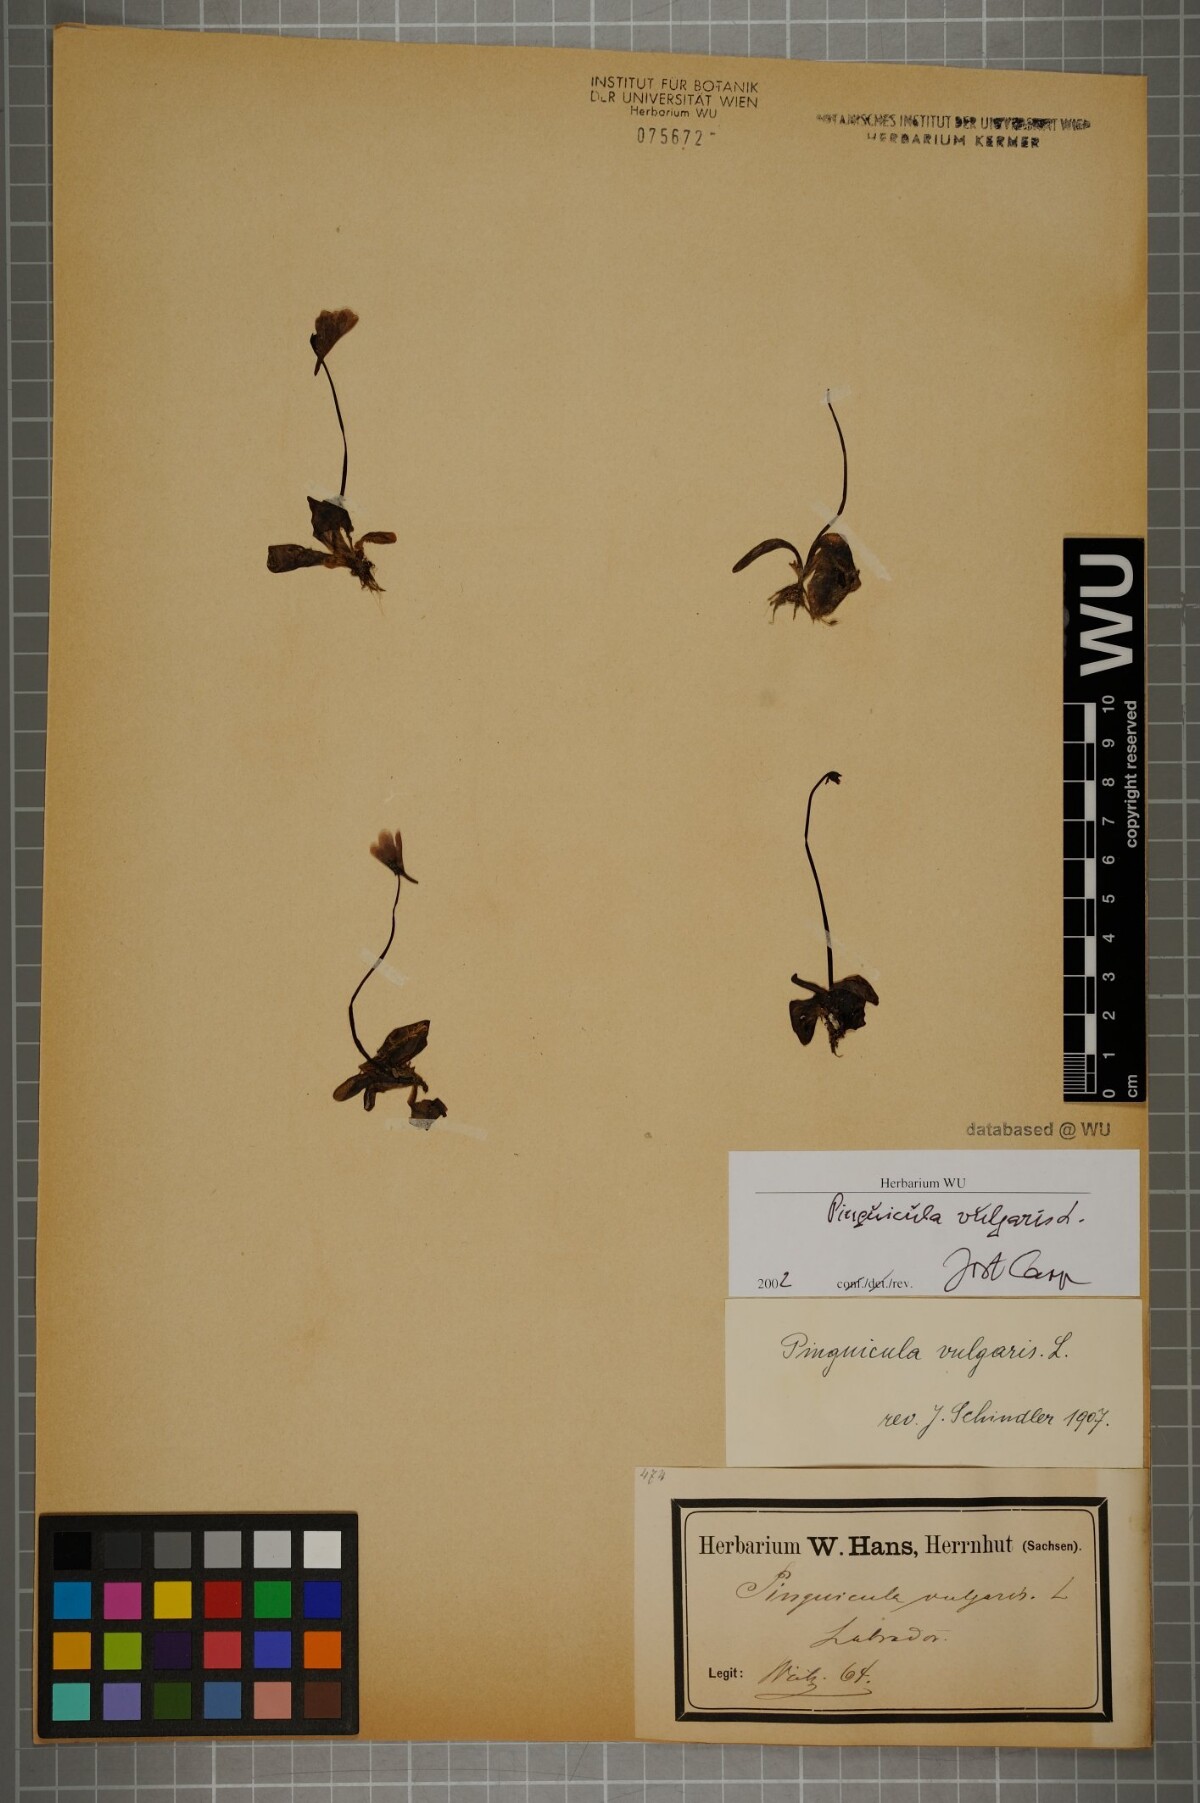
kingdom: Plantae
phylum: Tracheophyta
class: Magnoliopsida
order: Lamiales
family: Lentibulariaceae
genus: Pinguicula
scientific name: Pinguicula vulgaris
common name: Common butterwort
